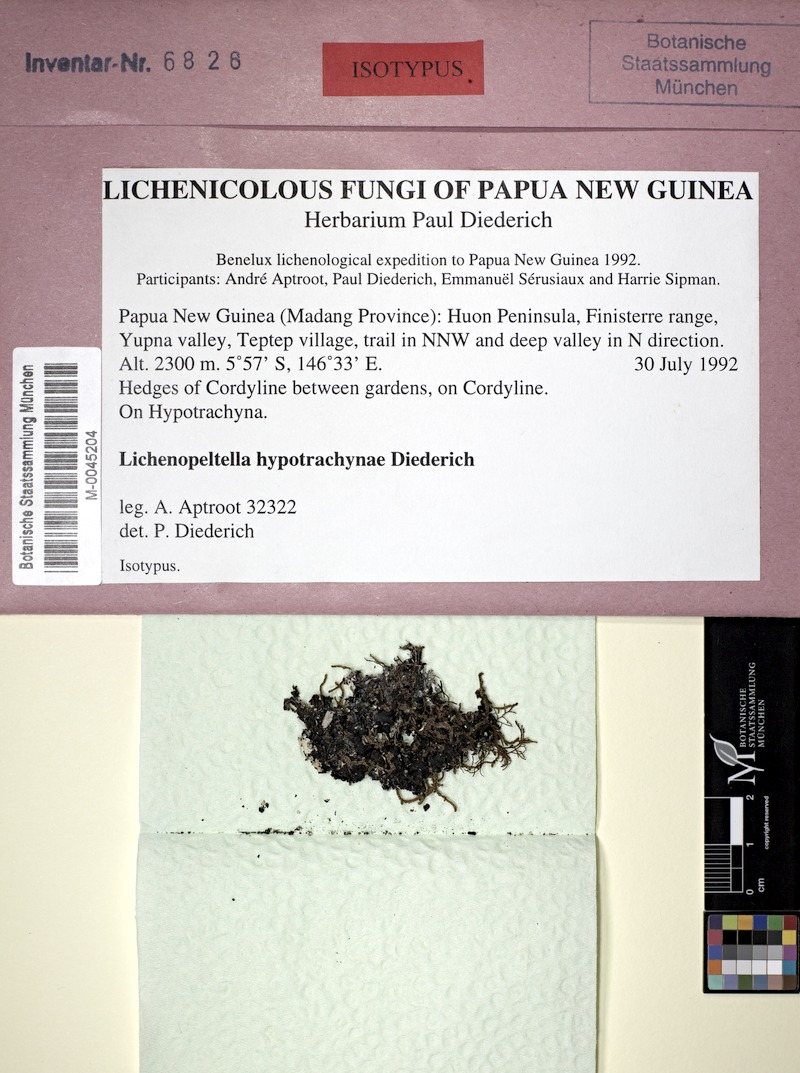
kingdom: Fungi
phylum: Ascomycota
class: Dothideomycetes
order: Microthyriales
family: Microthyriaceae
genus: Lichenopeltella
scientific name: Lichenopeltella hypotrachynae
